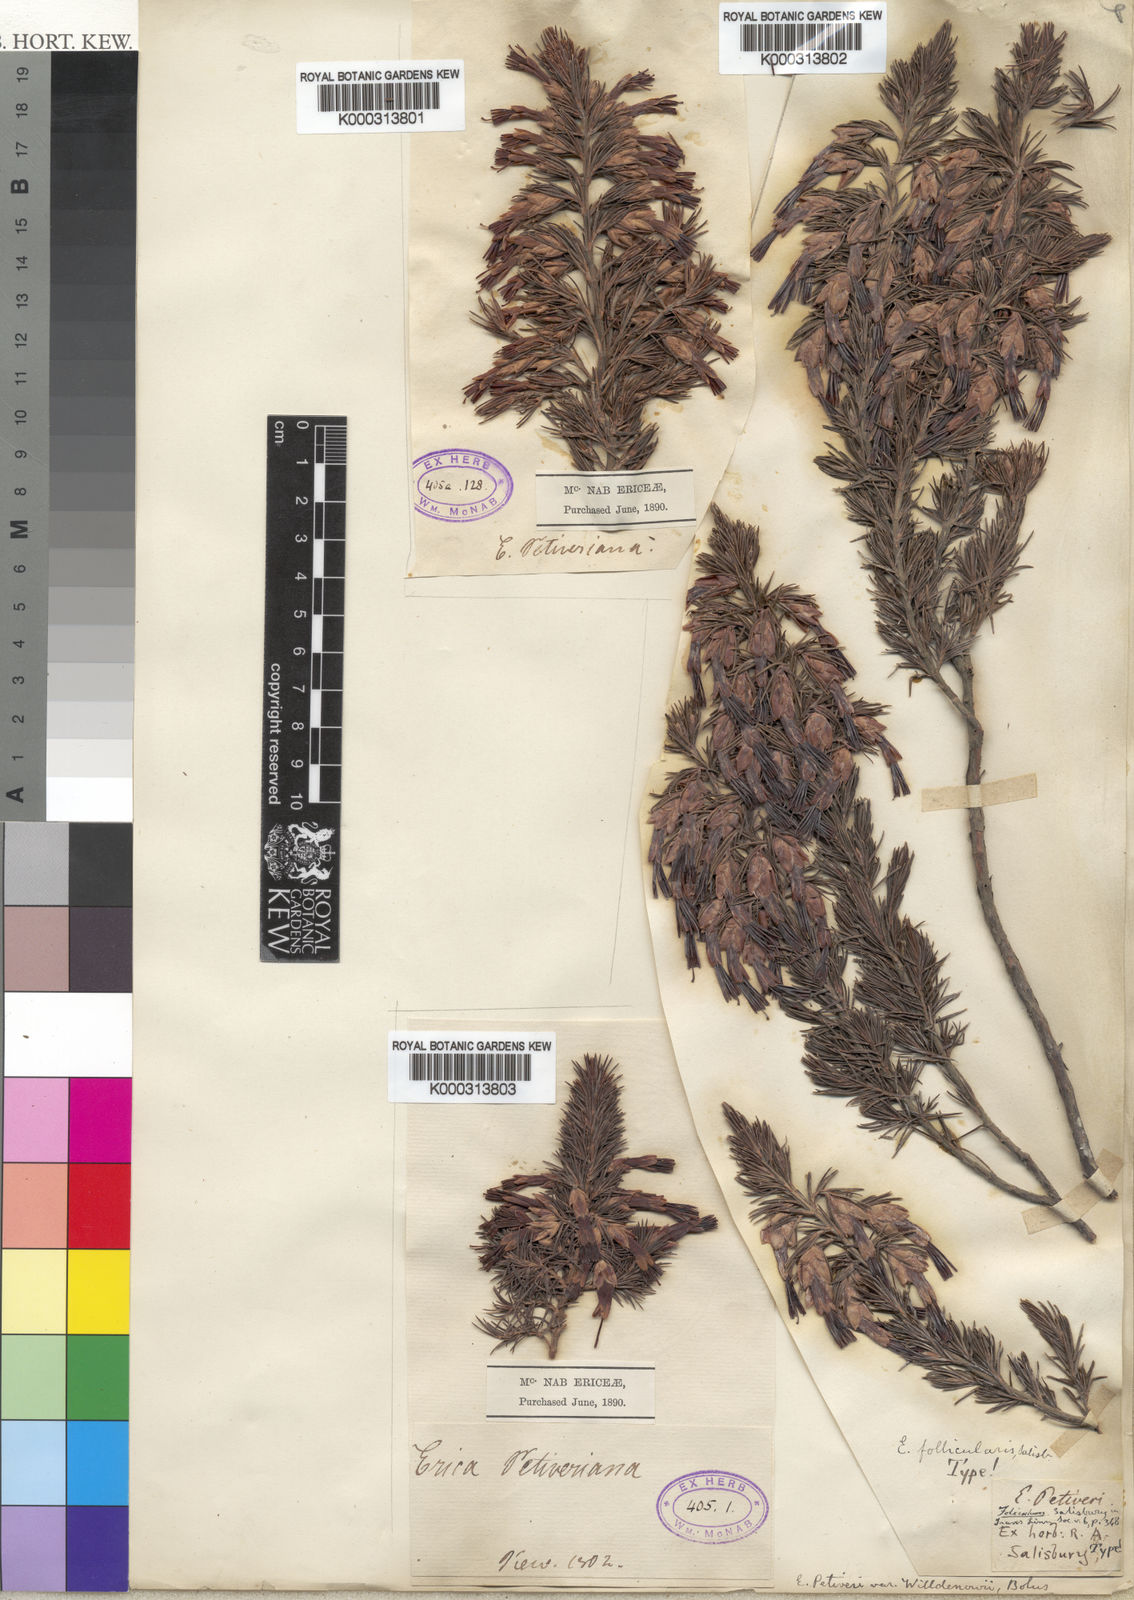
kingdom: Plantae
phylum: Tracheophyta
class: Magnoliopsida
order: Ericales
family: Ericaceae
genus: Erica
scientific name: Erica coccinea
